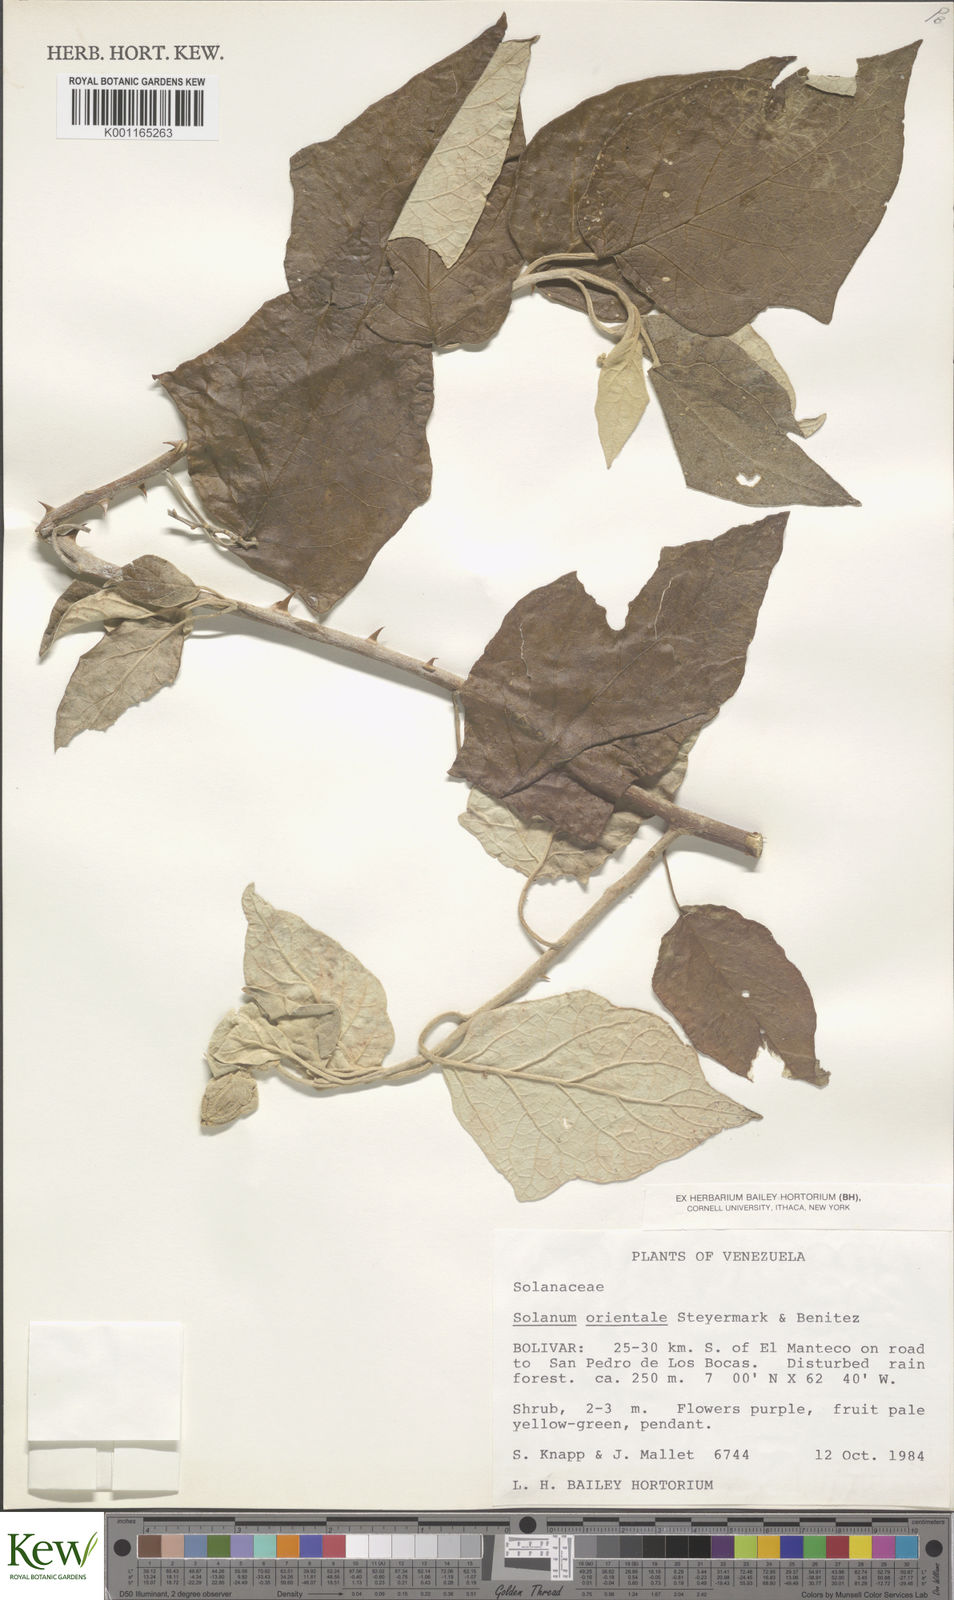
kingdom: Plantae
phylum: Tracheophyta
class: Magnoliopsida
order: Solanales
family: Solanaceae
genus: Solanum
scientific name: Solanum oocarpum
